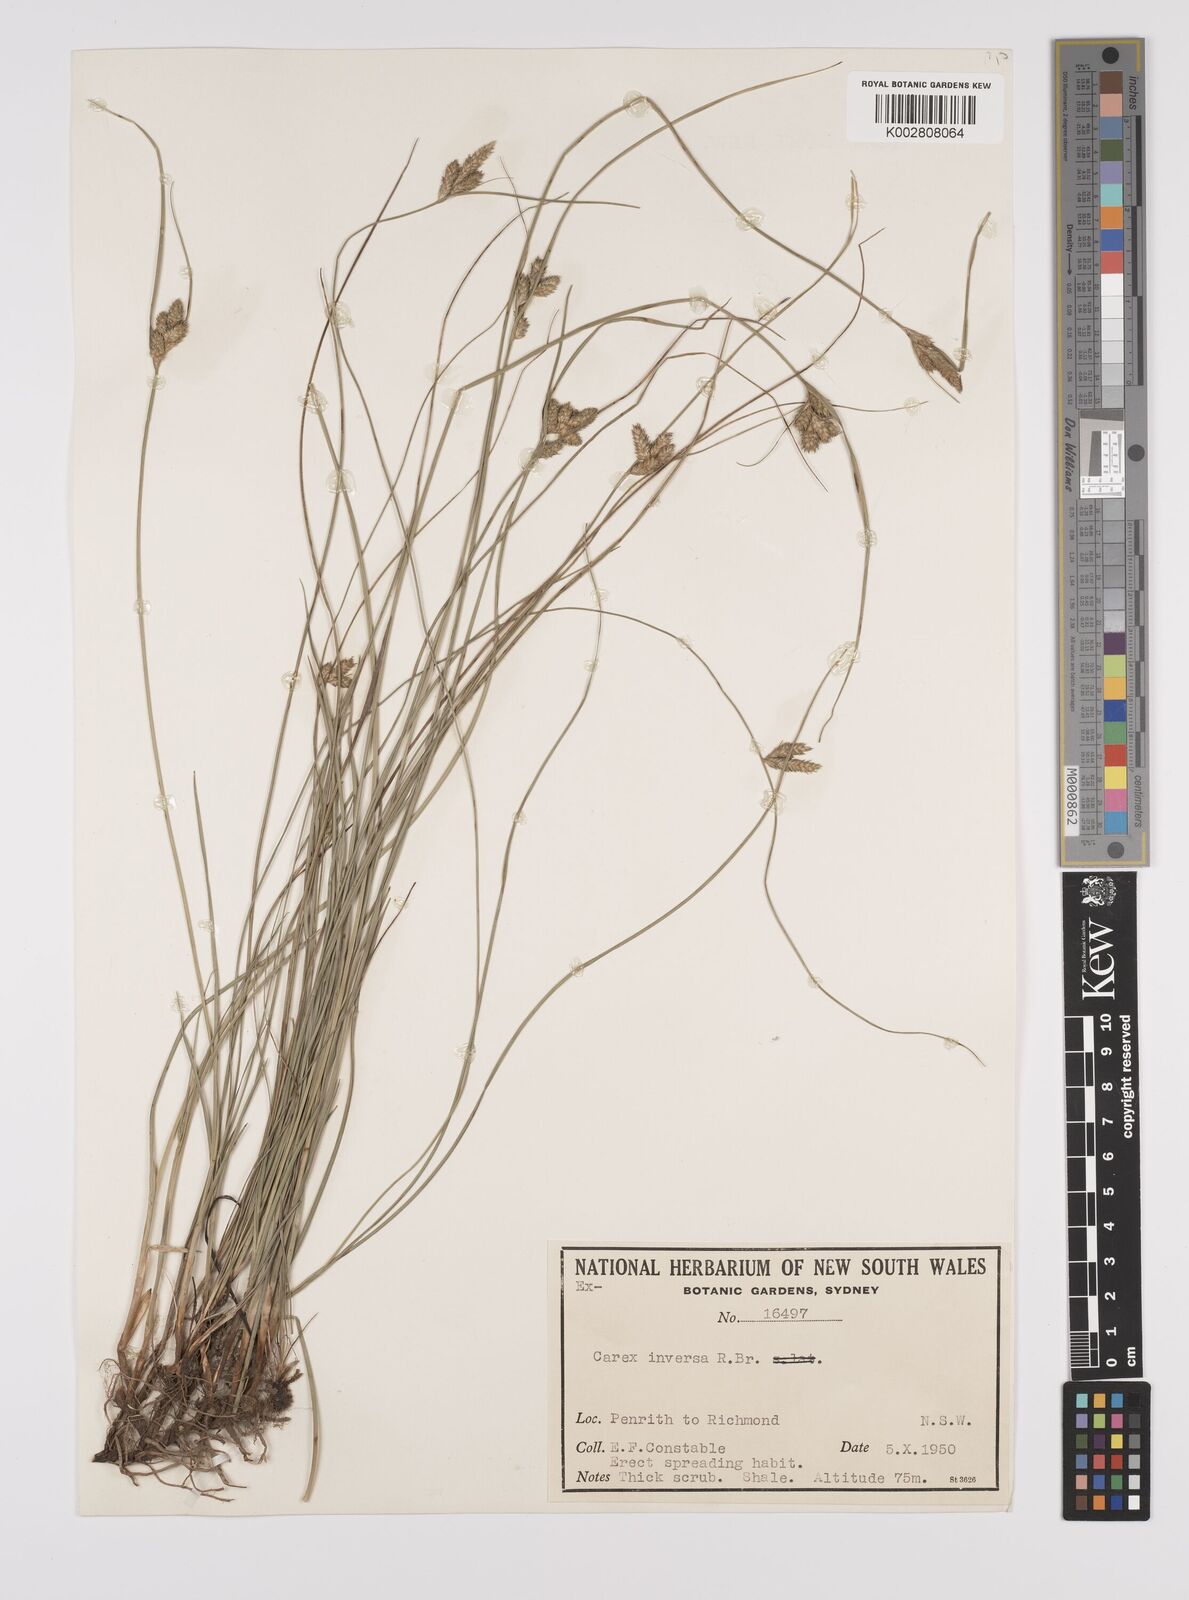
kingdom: Plantae
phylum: Tracheophyta
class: Liliopsida
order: Poales
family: Cyperaceae
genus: Carex
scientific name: Carex inversa
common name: Knob sedge
